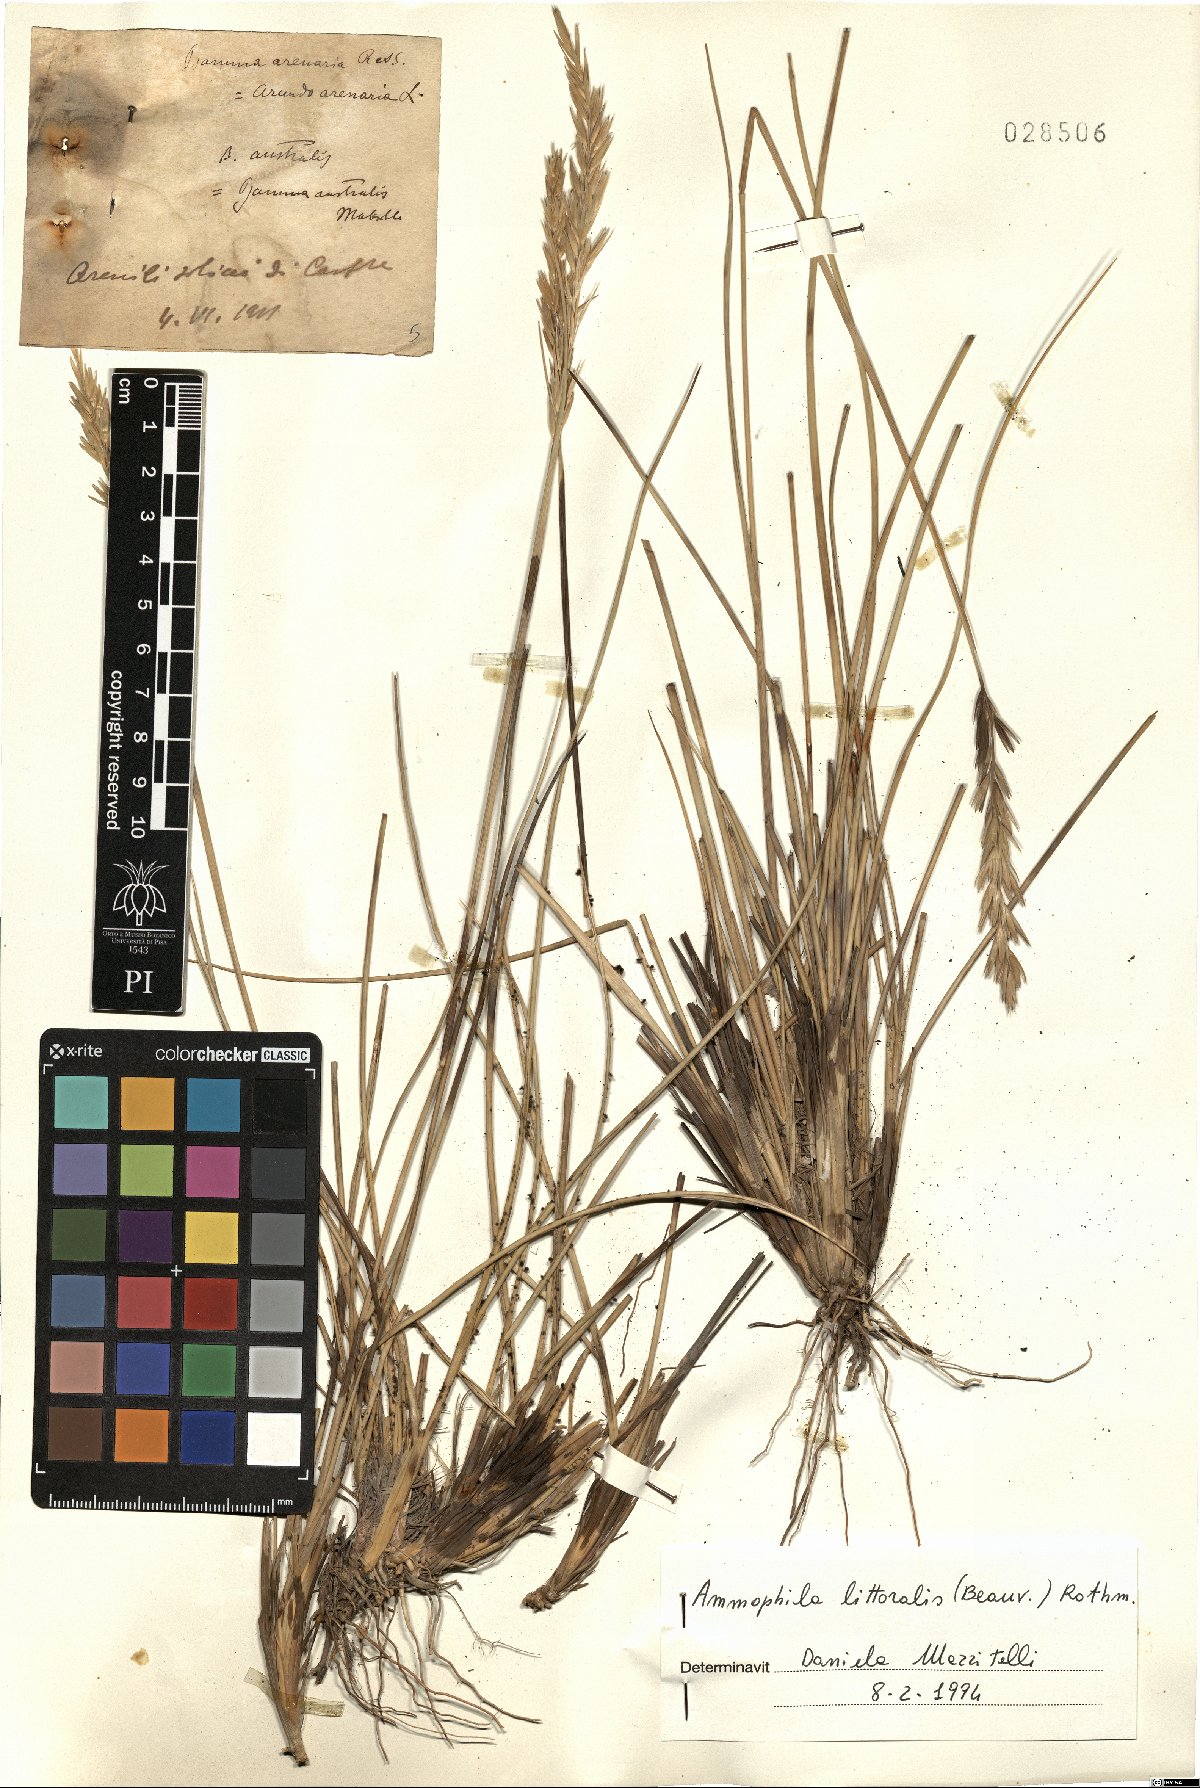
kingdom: Plantae
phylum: Tracheophyta
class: Liliopsida
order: Poales
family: Poaceae
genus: Calamagrostis
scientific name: Calamagrostis arenaria
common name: European beachgrass
